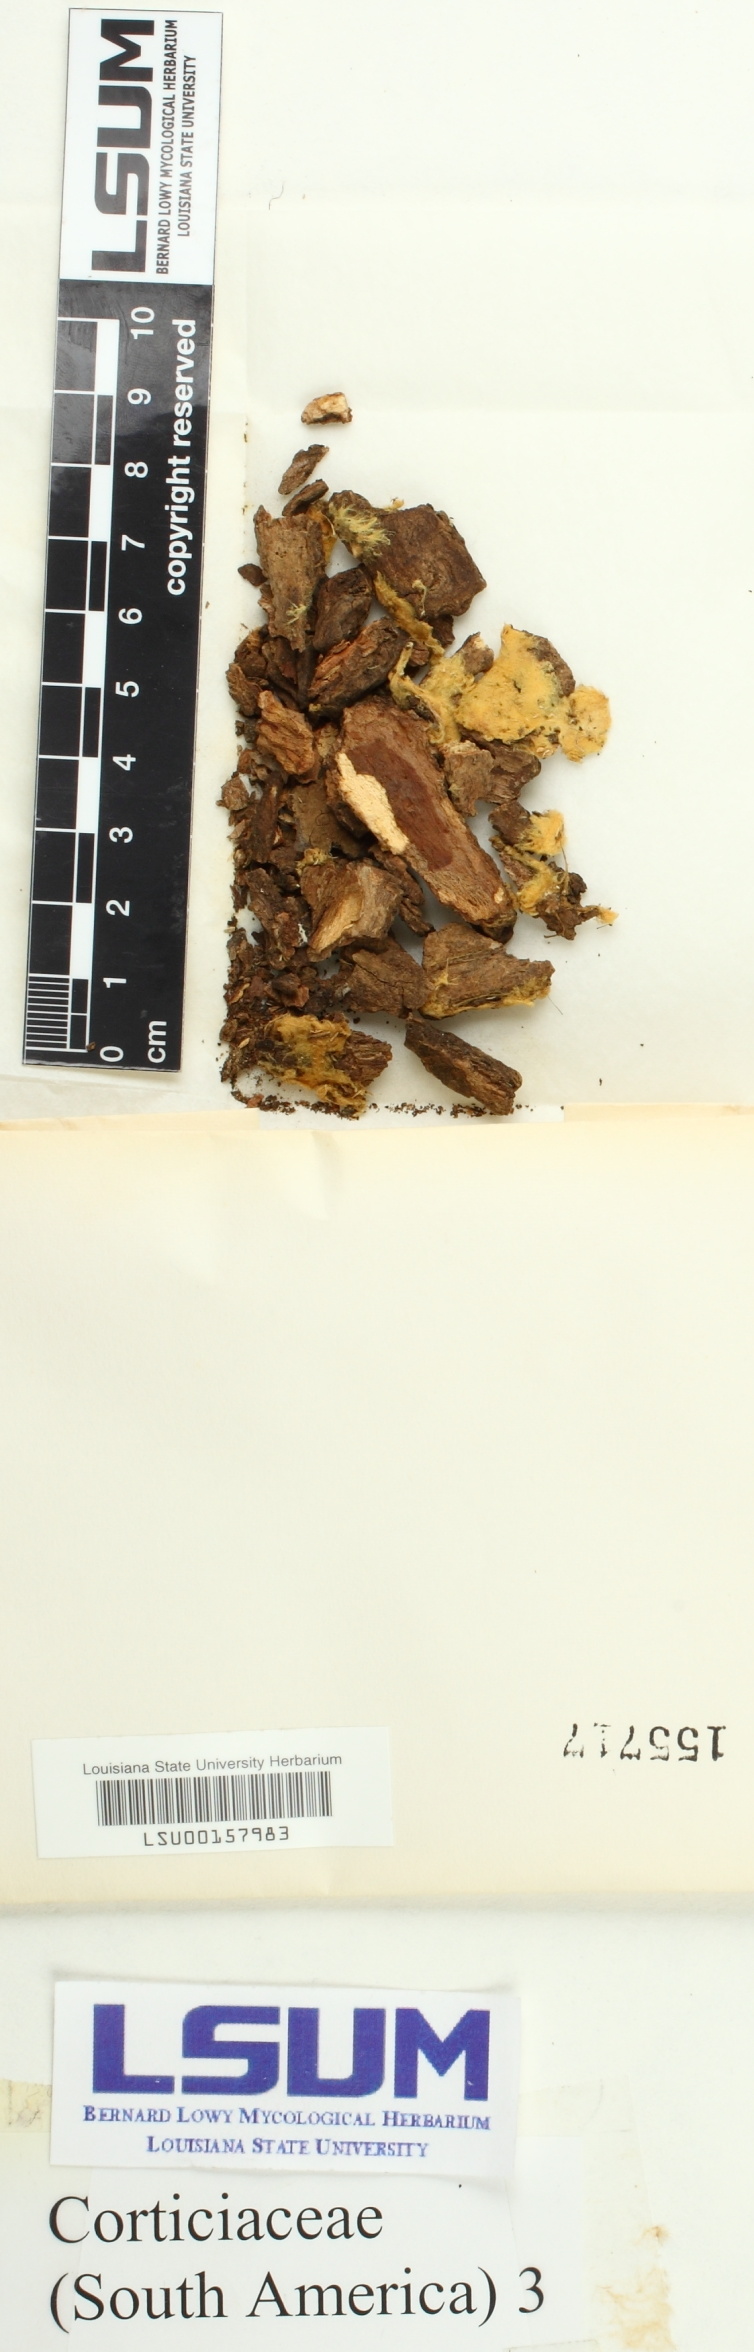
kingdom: Fungi
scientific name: Fungi
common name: Fungi
